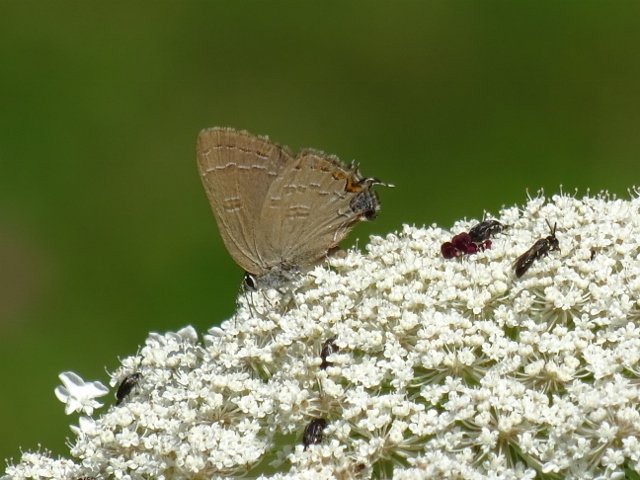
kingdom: Animalia
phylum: Arthropoda
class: Insecta
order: Lepidoptera
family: Lycaenidae
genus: Satyrium
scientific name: Satyrium calanus
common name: Banded Hairstreak
